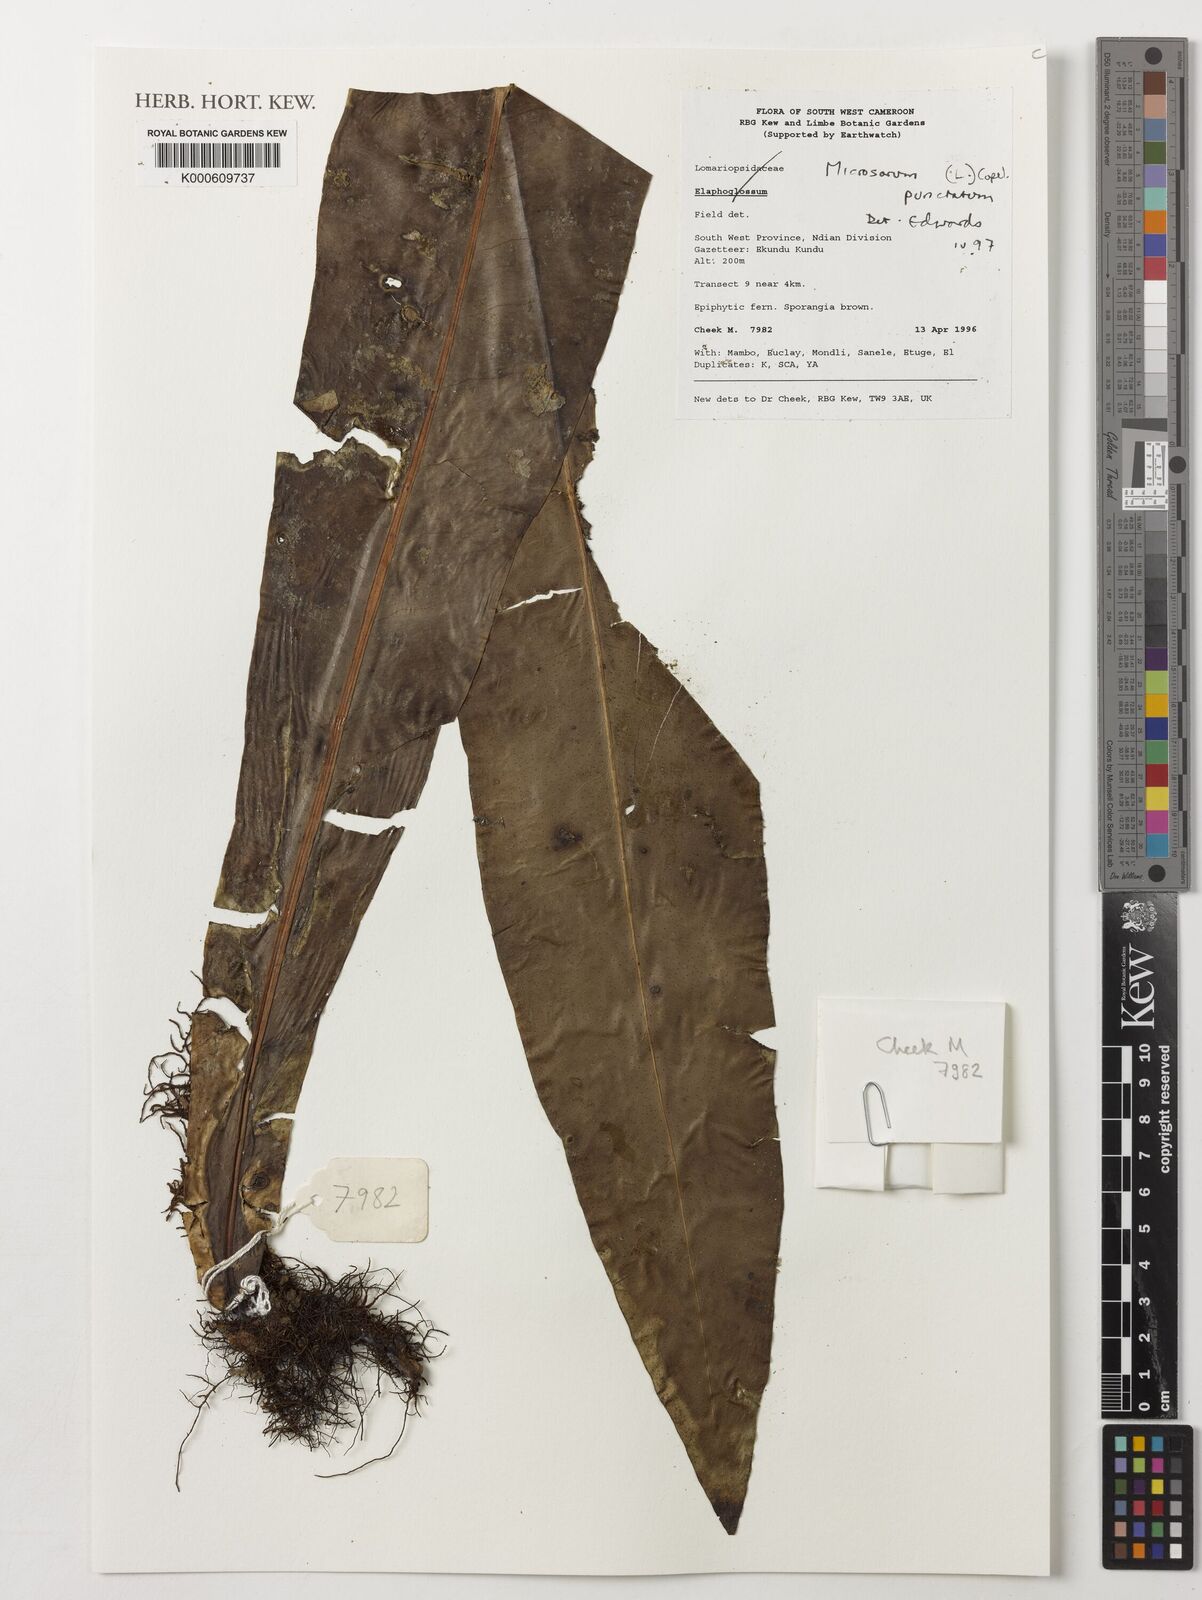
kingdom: Plantae
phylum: Tracheophyta
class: Polypodiopsida
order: Polypodiales
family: Polypodiaceae
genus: Microsorum
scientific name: Microsorum
